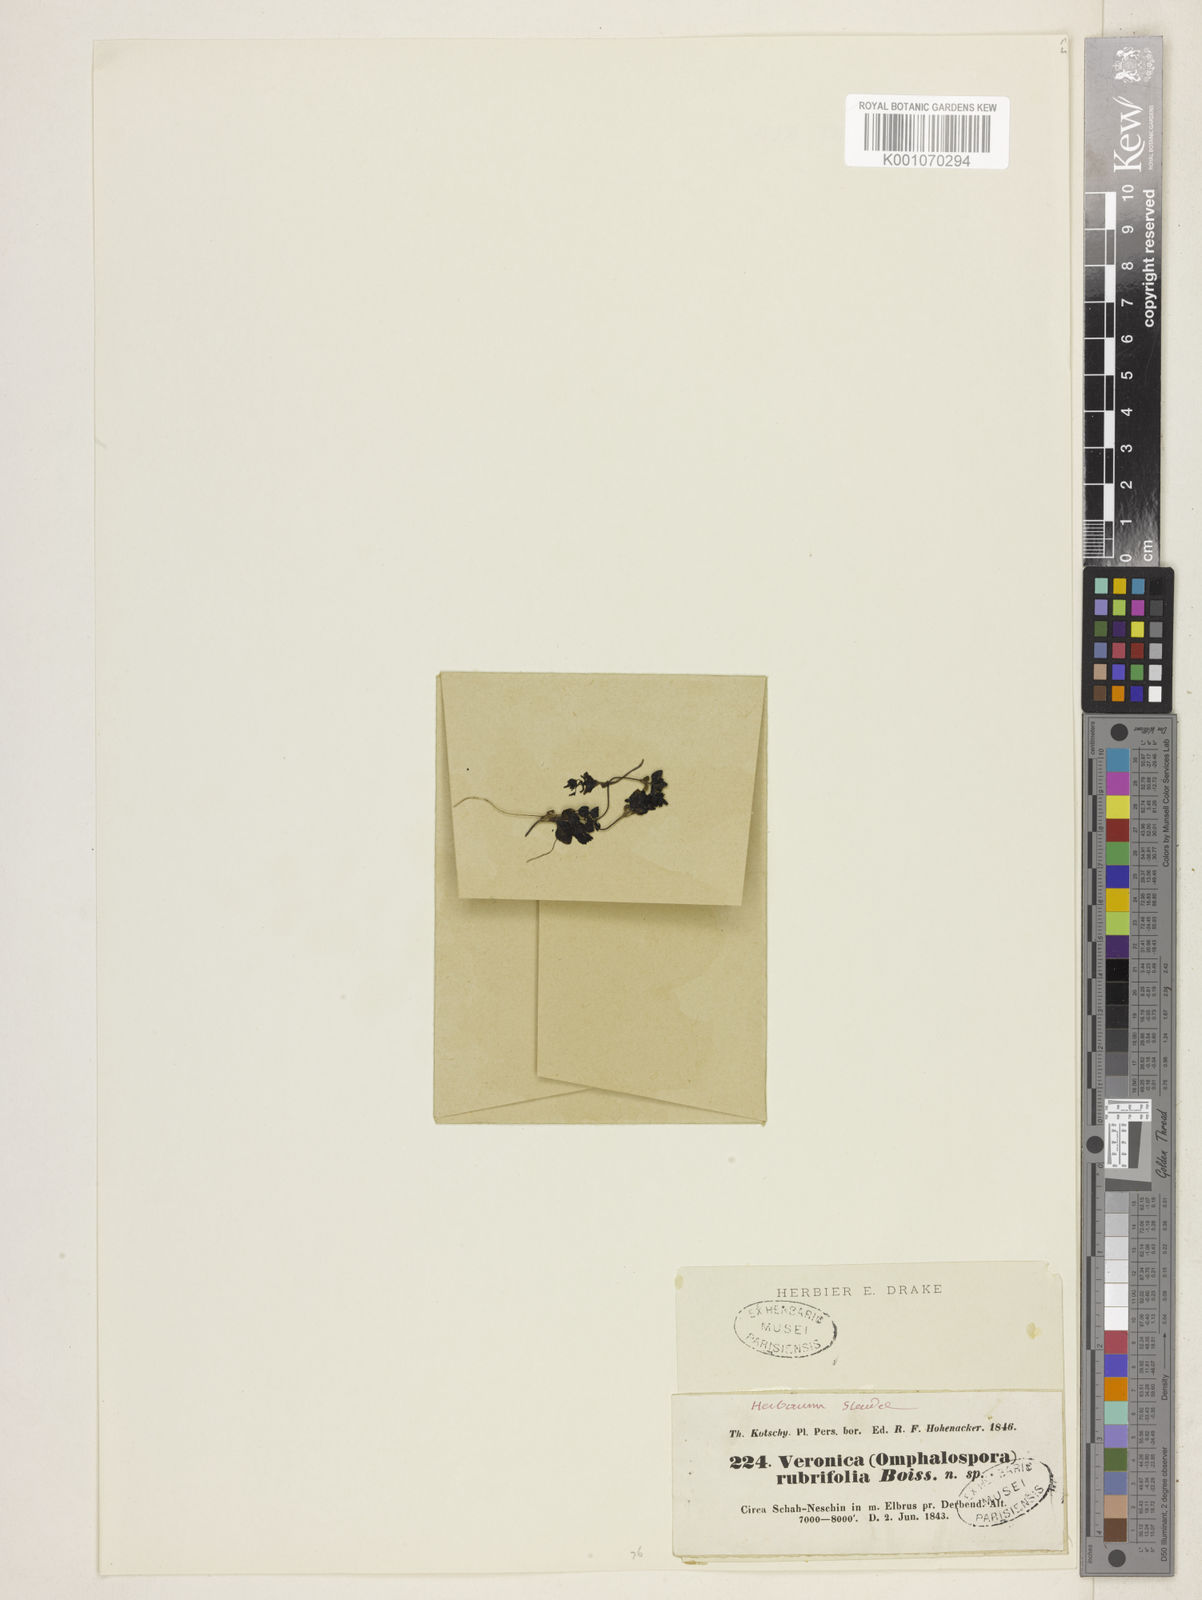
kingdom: Plantae
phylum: Tracheophyta
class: Magnoliopsida
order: Lamiales
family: Plantaginaceae
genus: Veronica
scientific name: Veronica rubrifolia
